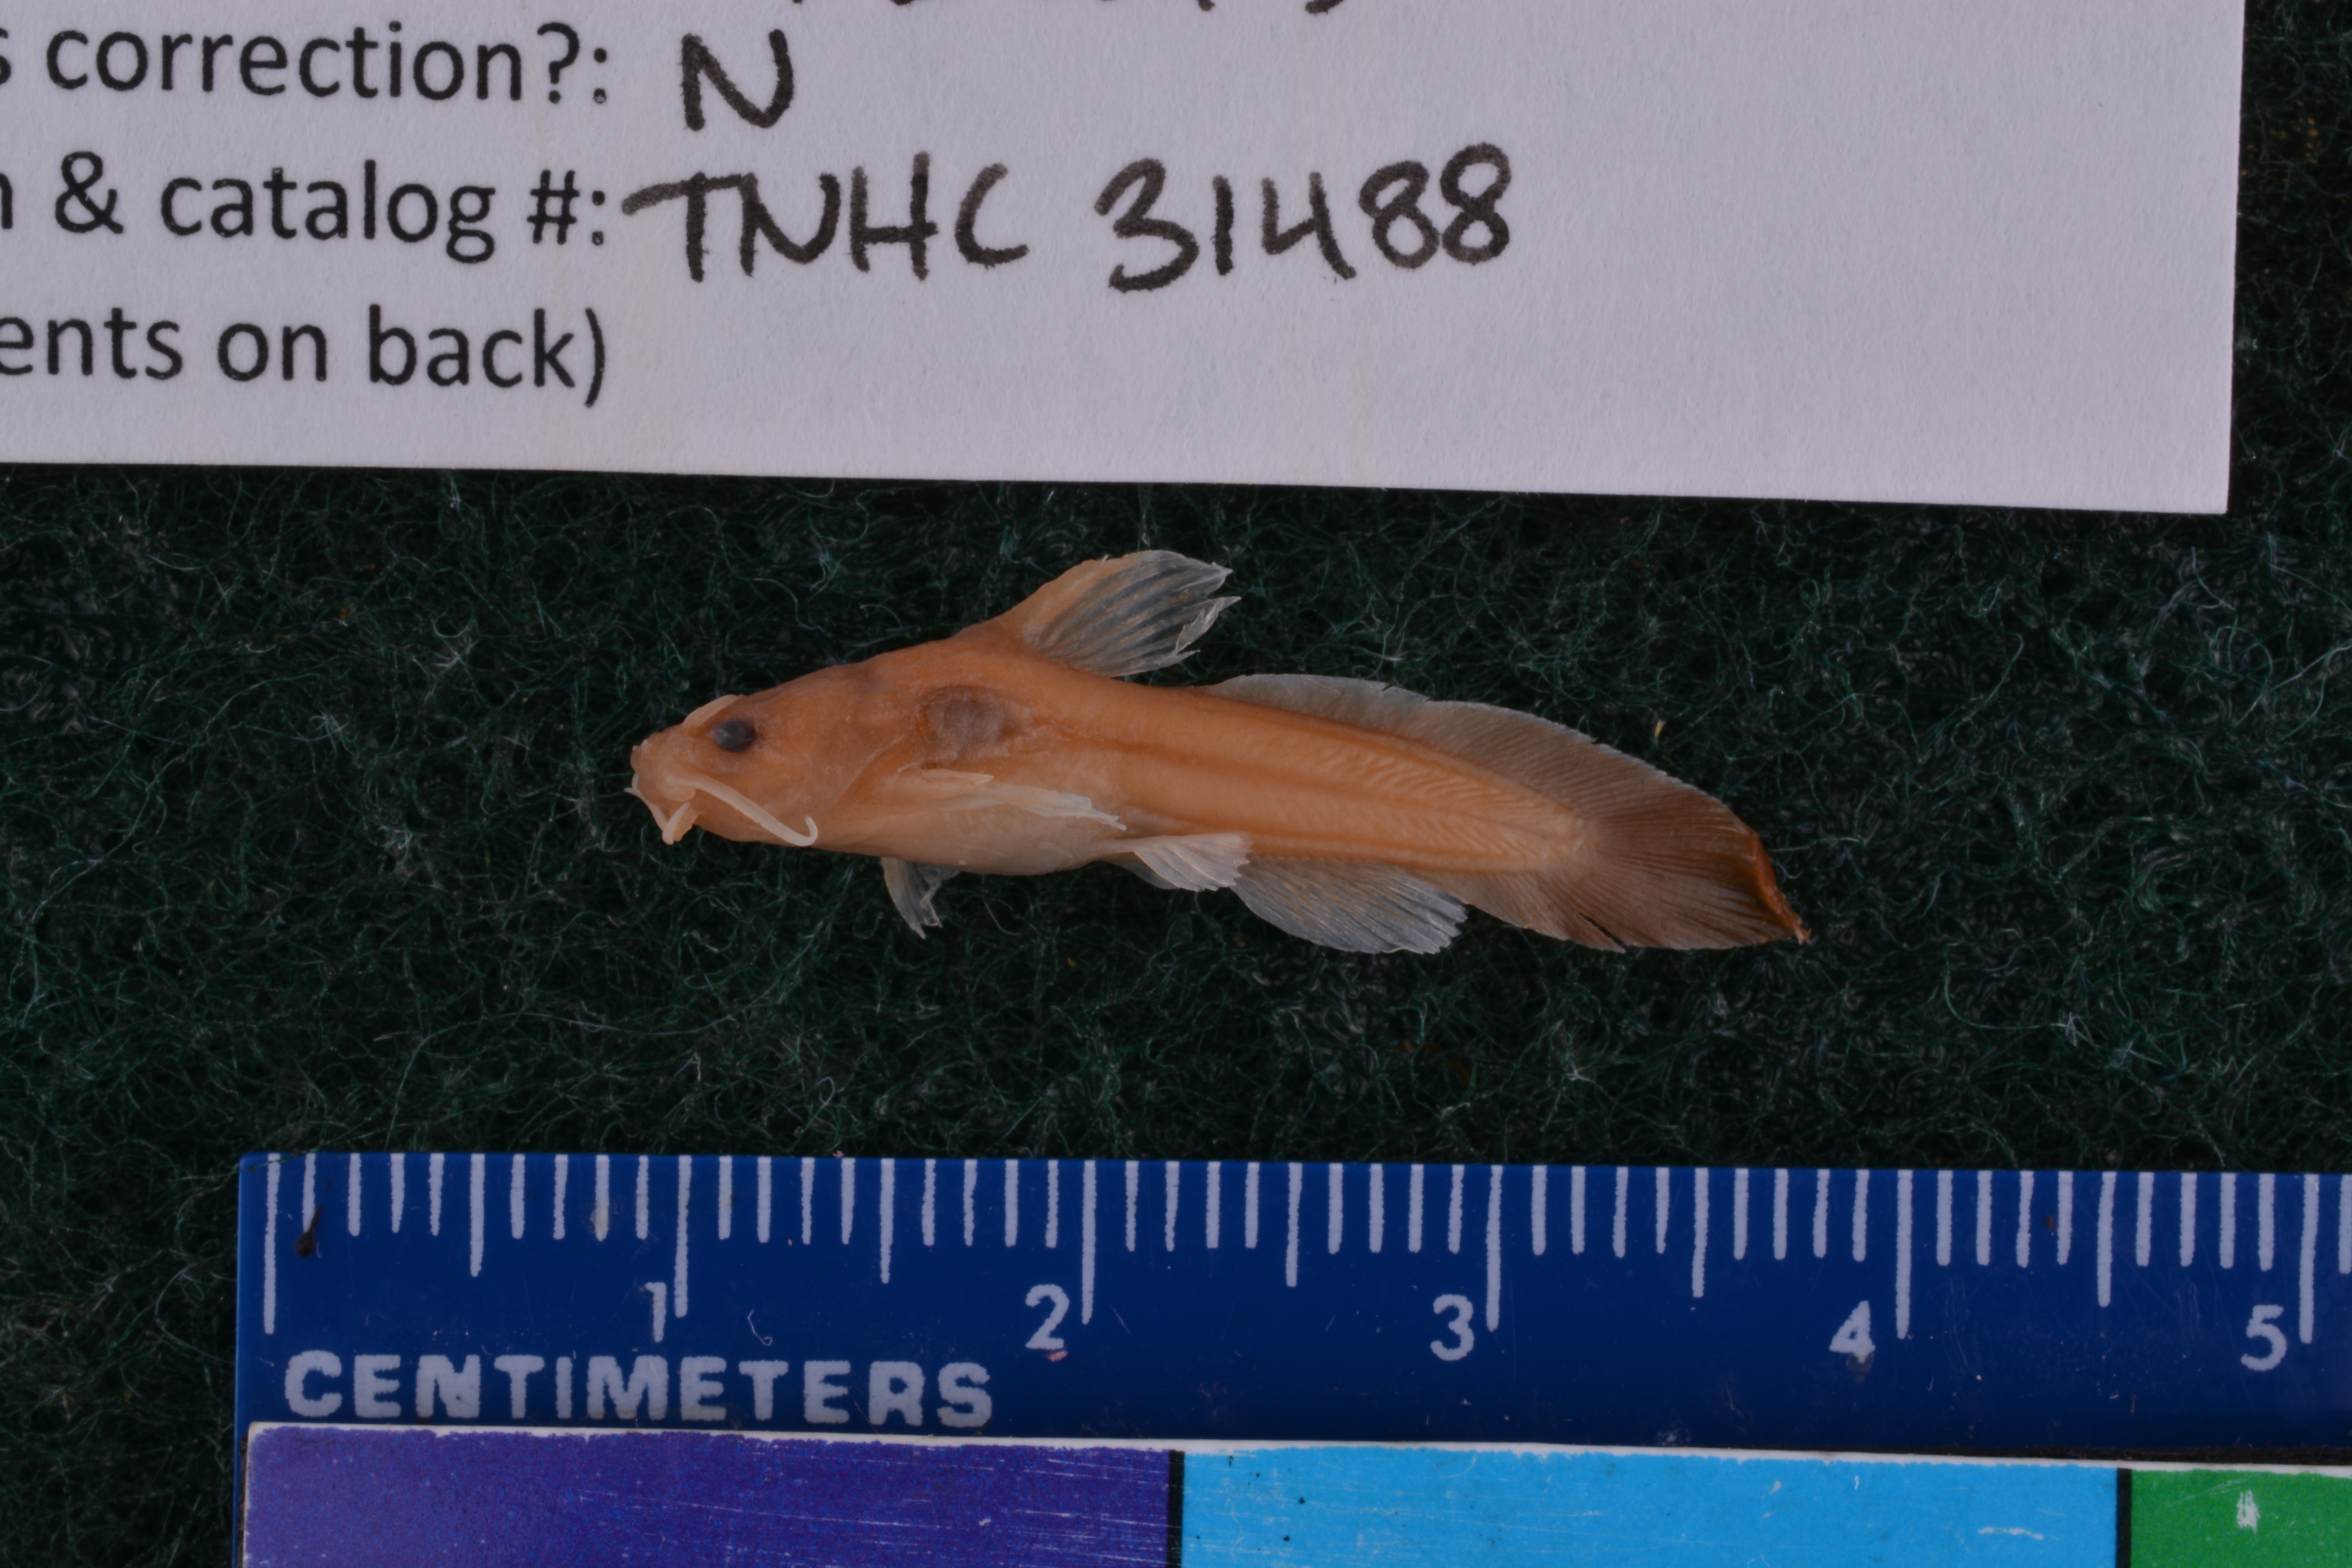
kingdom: Animalia
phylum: Chordata
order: Siluriformes
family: Ictaluridae
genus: Noturus
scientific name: Noturus gyrinus
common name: Tadpole madtom
